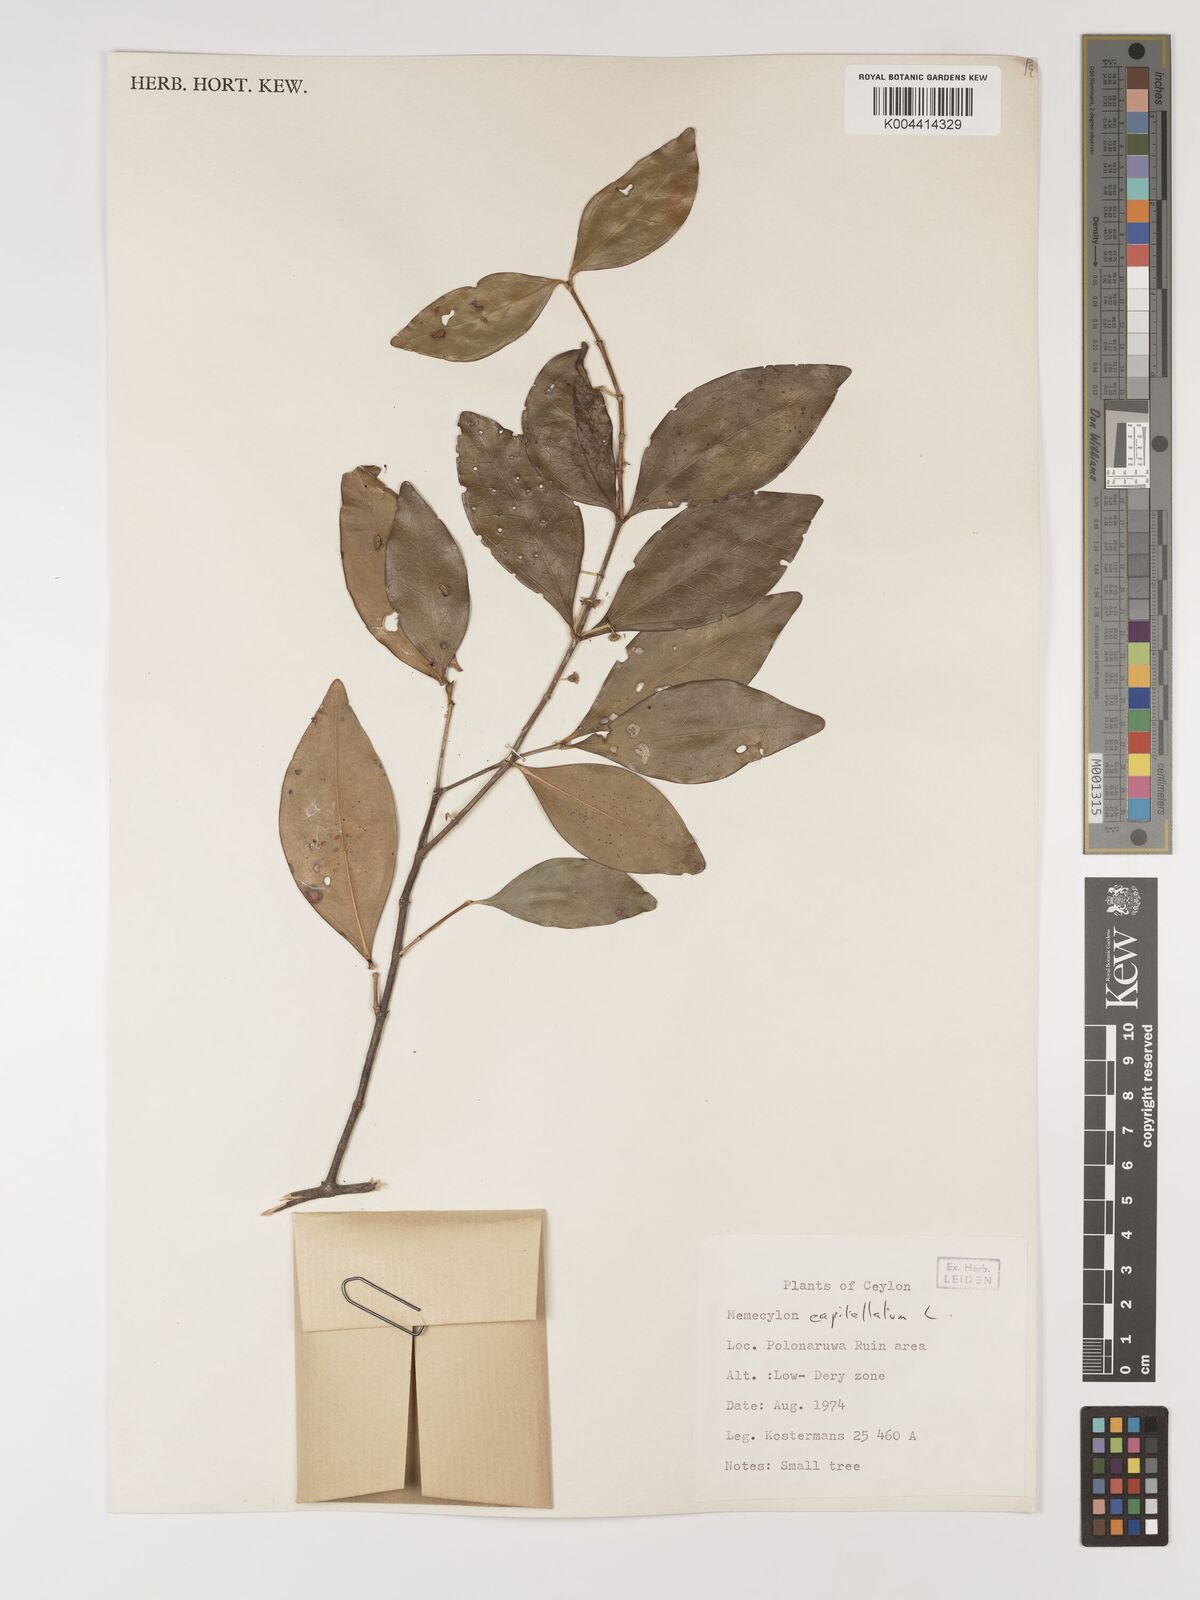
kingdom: Plantae
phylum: Tracheophyta
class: Magnoliopsida
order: Myrtales
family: Melastomataceae
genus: Memecylon
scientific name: Memecylon capitellatum
